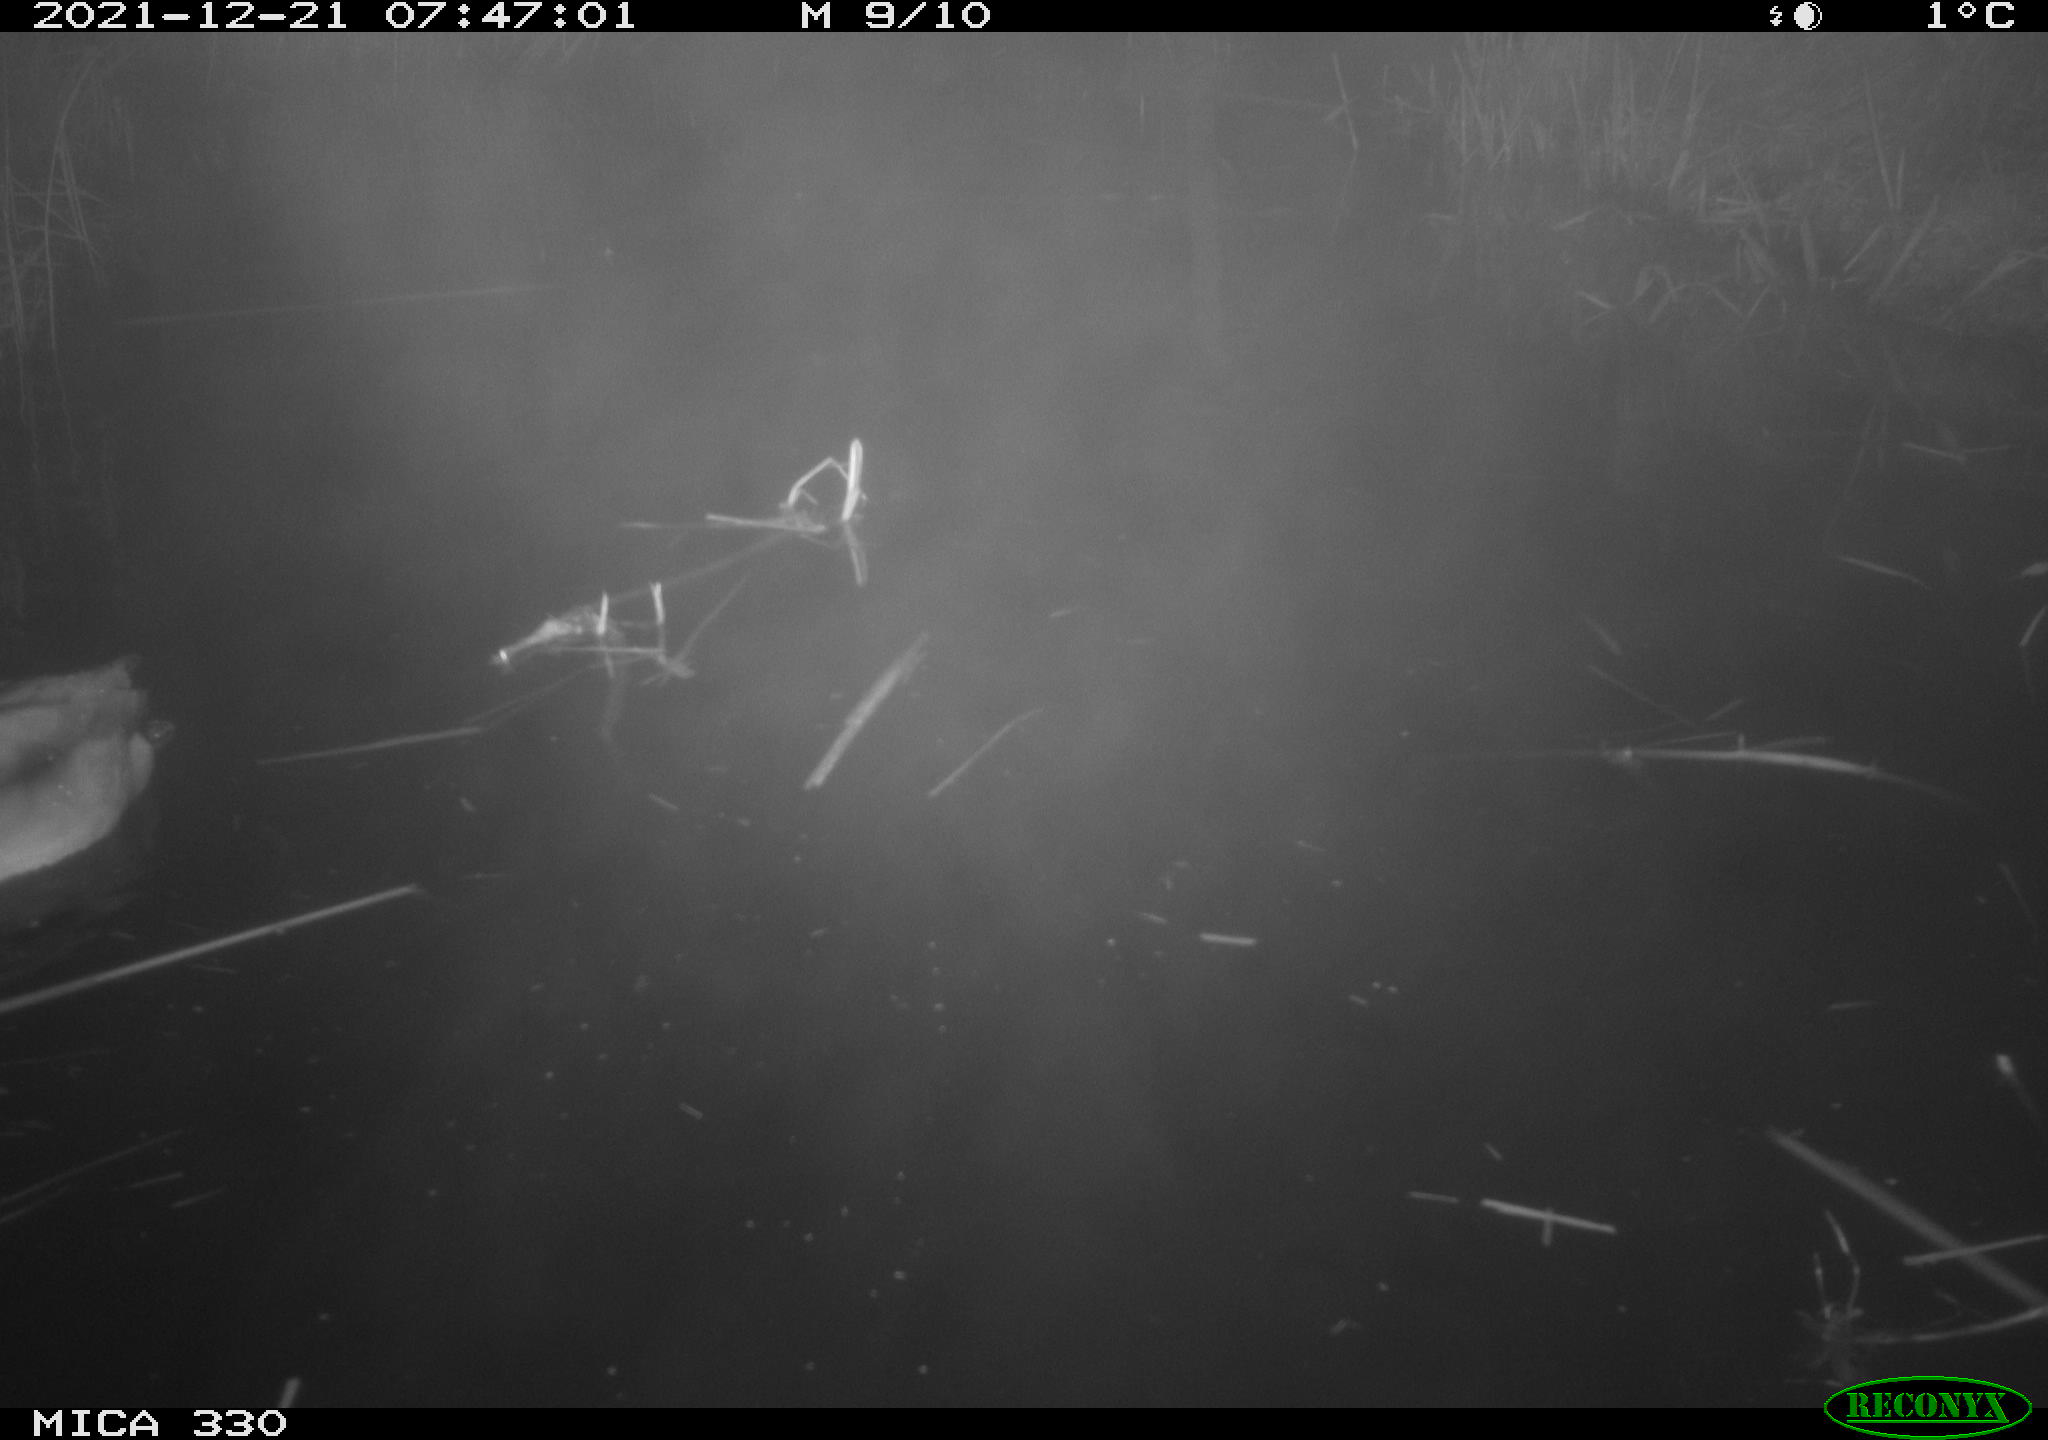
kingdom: Animalia
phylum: Chordata
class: Aves
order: Anseriformes
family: Anatidae
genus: Anas
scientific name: Anas platyrhynchos
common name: Mallard
